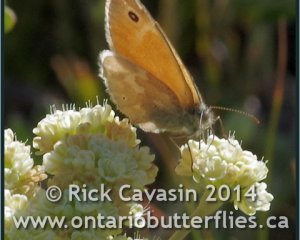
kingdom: Animalia
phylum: Arthropoda
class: Insecta
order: Lepidoptera
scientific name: Lepidoptera
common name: Butterflies
